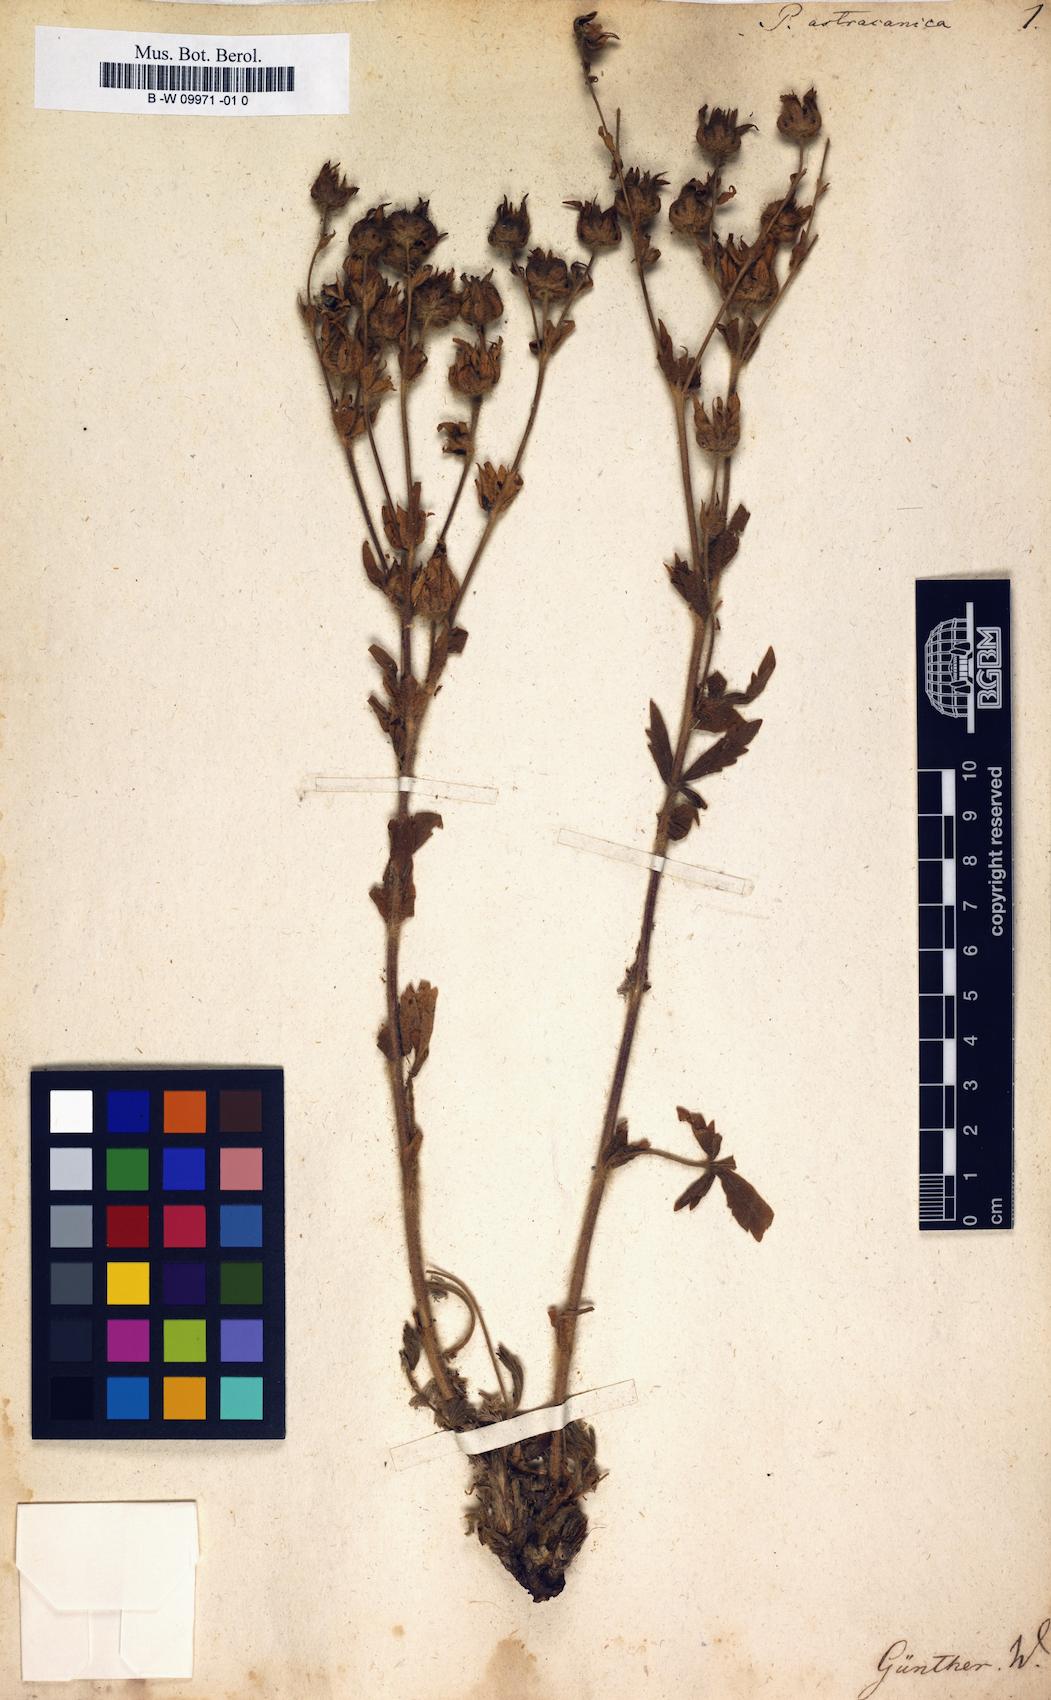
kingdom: Plantae
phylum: Tracheophyta
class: Magnoliopsida
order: Rosales
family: Rosaceae
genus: Potentilla
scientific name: Potentilla astracanica
